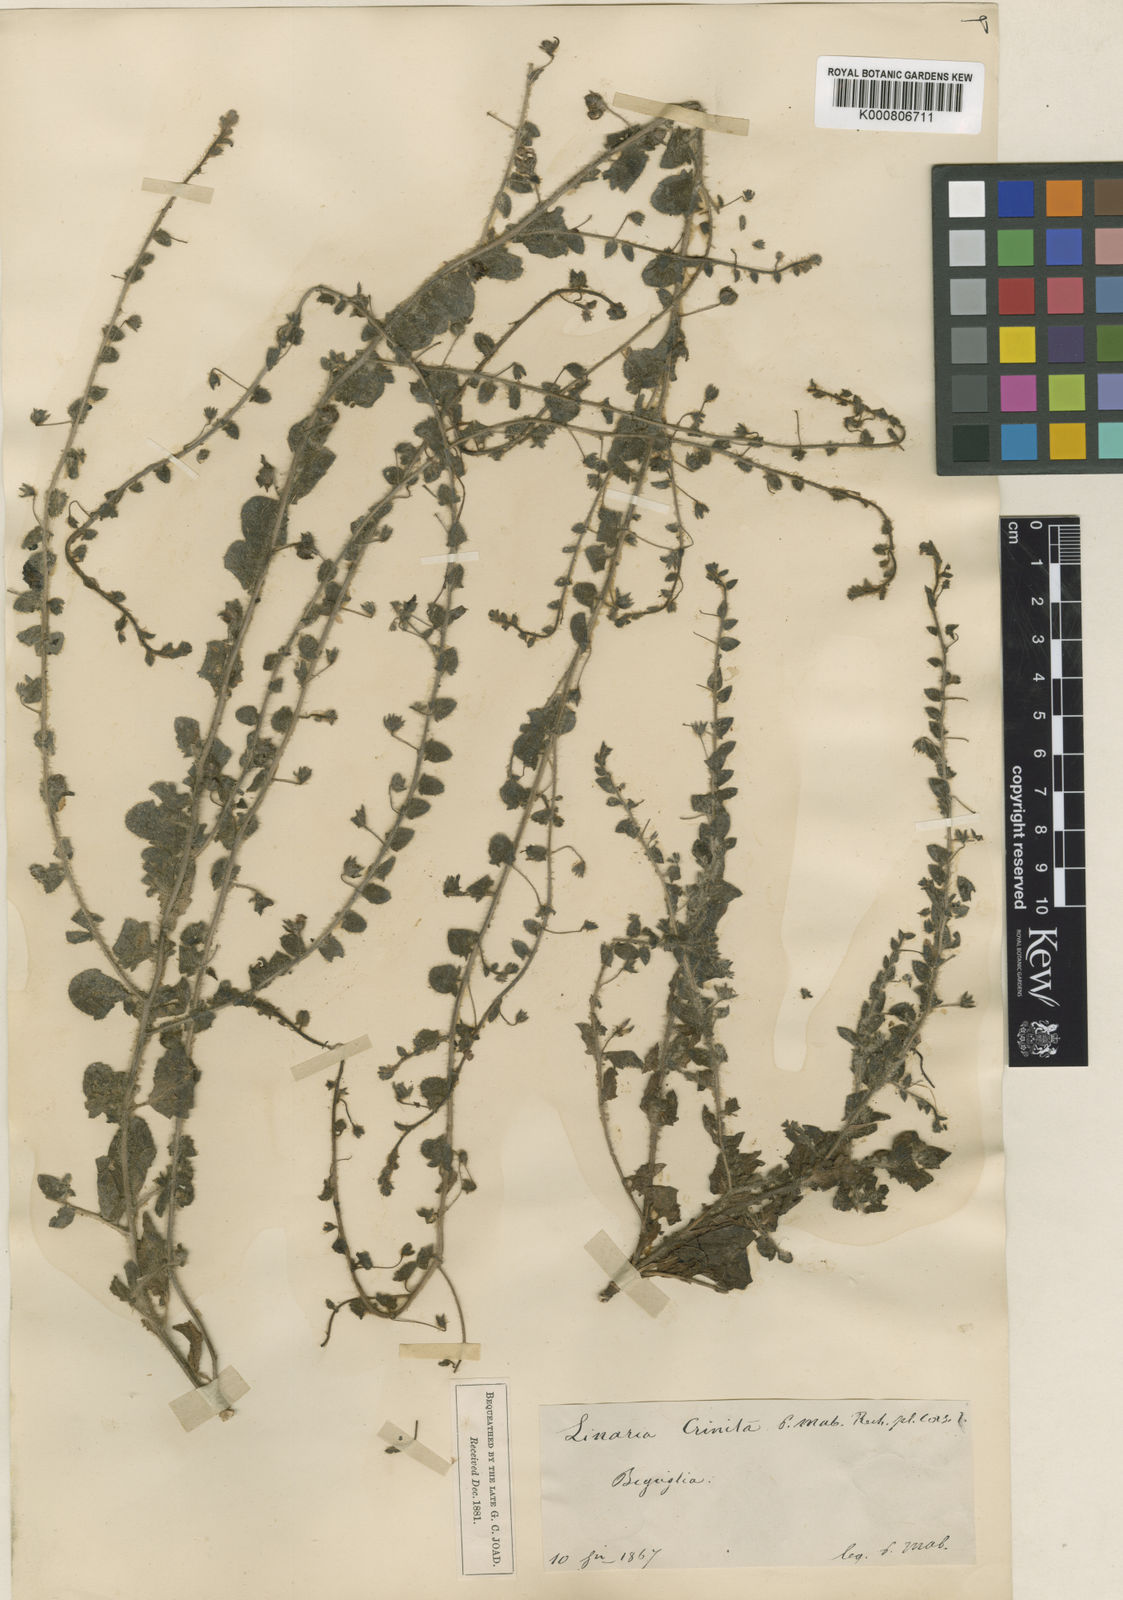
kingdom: Plantae
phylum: Tracheophyta
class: Magnoliopsida
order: Lamiales
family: Plantaginaceae
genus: Kickxia
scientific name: Kickxia elatine
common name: Sharp-leaved fluellen
